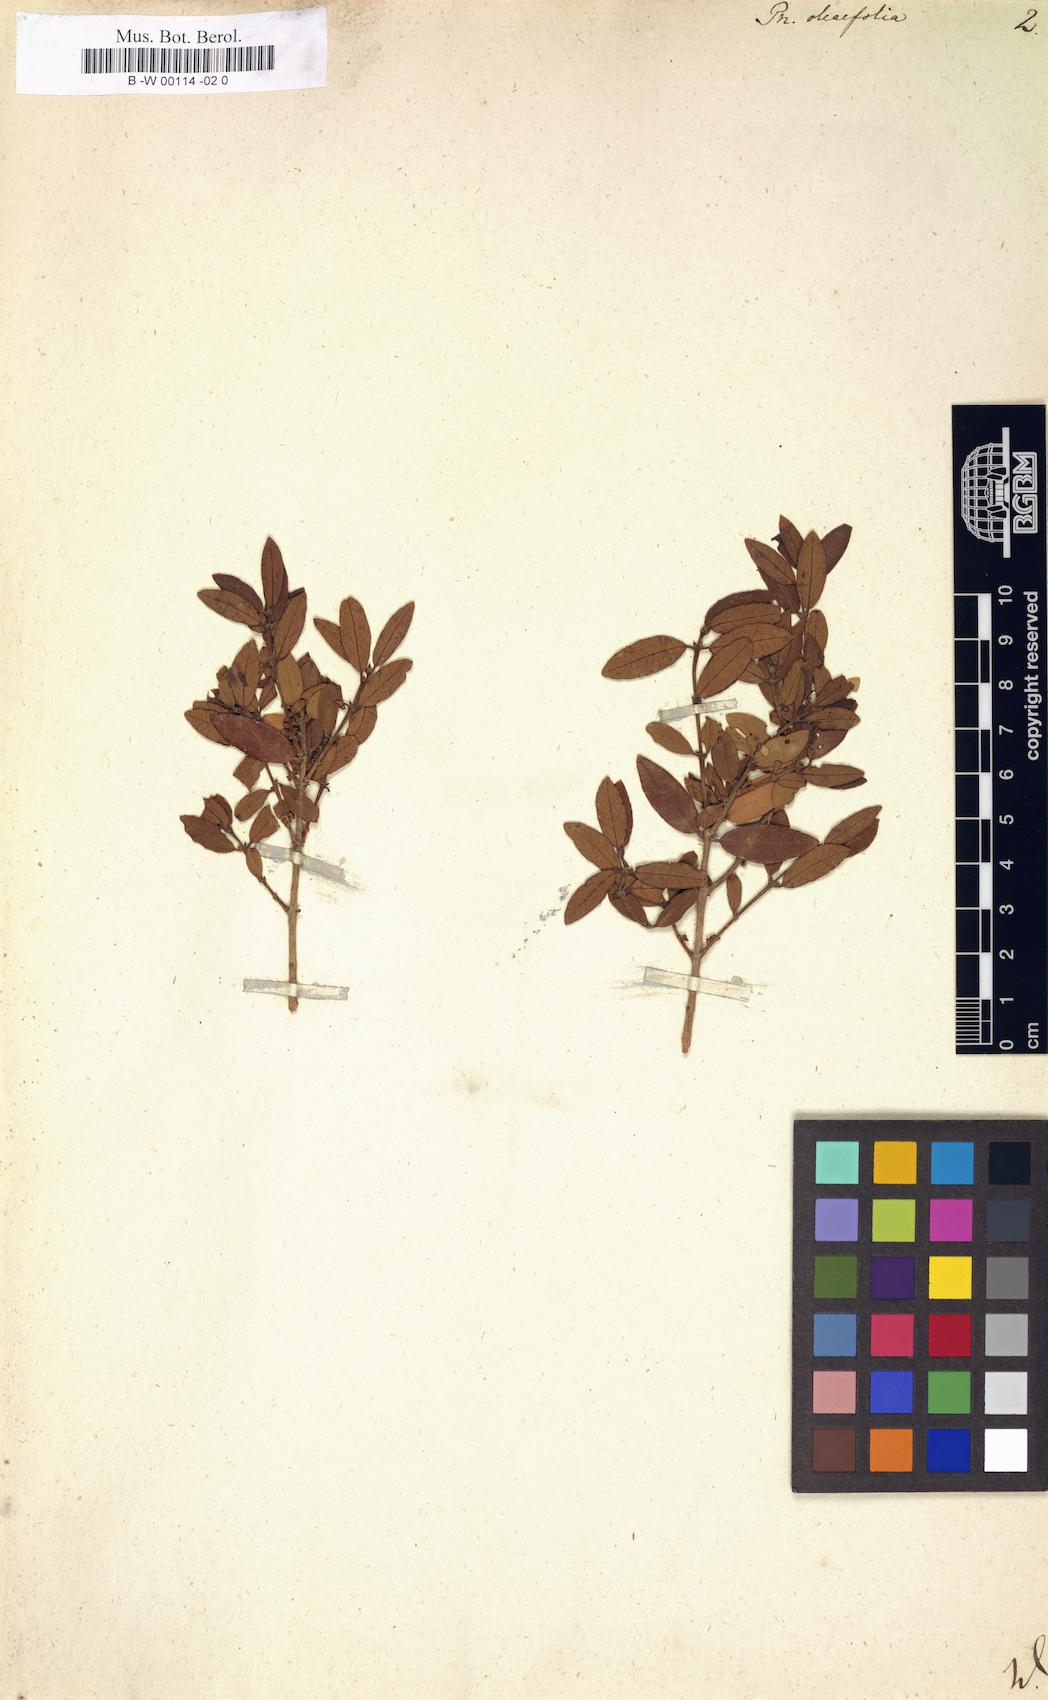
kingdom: Plantae
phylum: Tracheophyta
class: Magnoliopsida
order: Lamiales
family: Oleaceae
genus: Phillyrea
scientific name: Phillyrea latifolia
